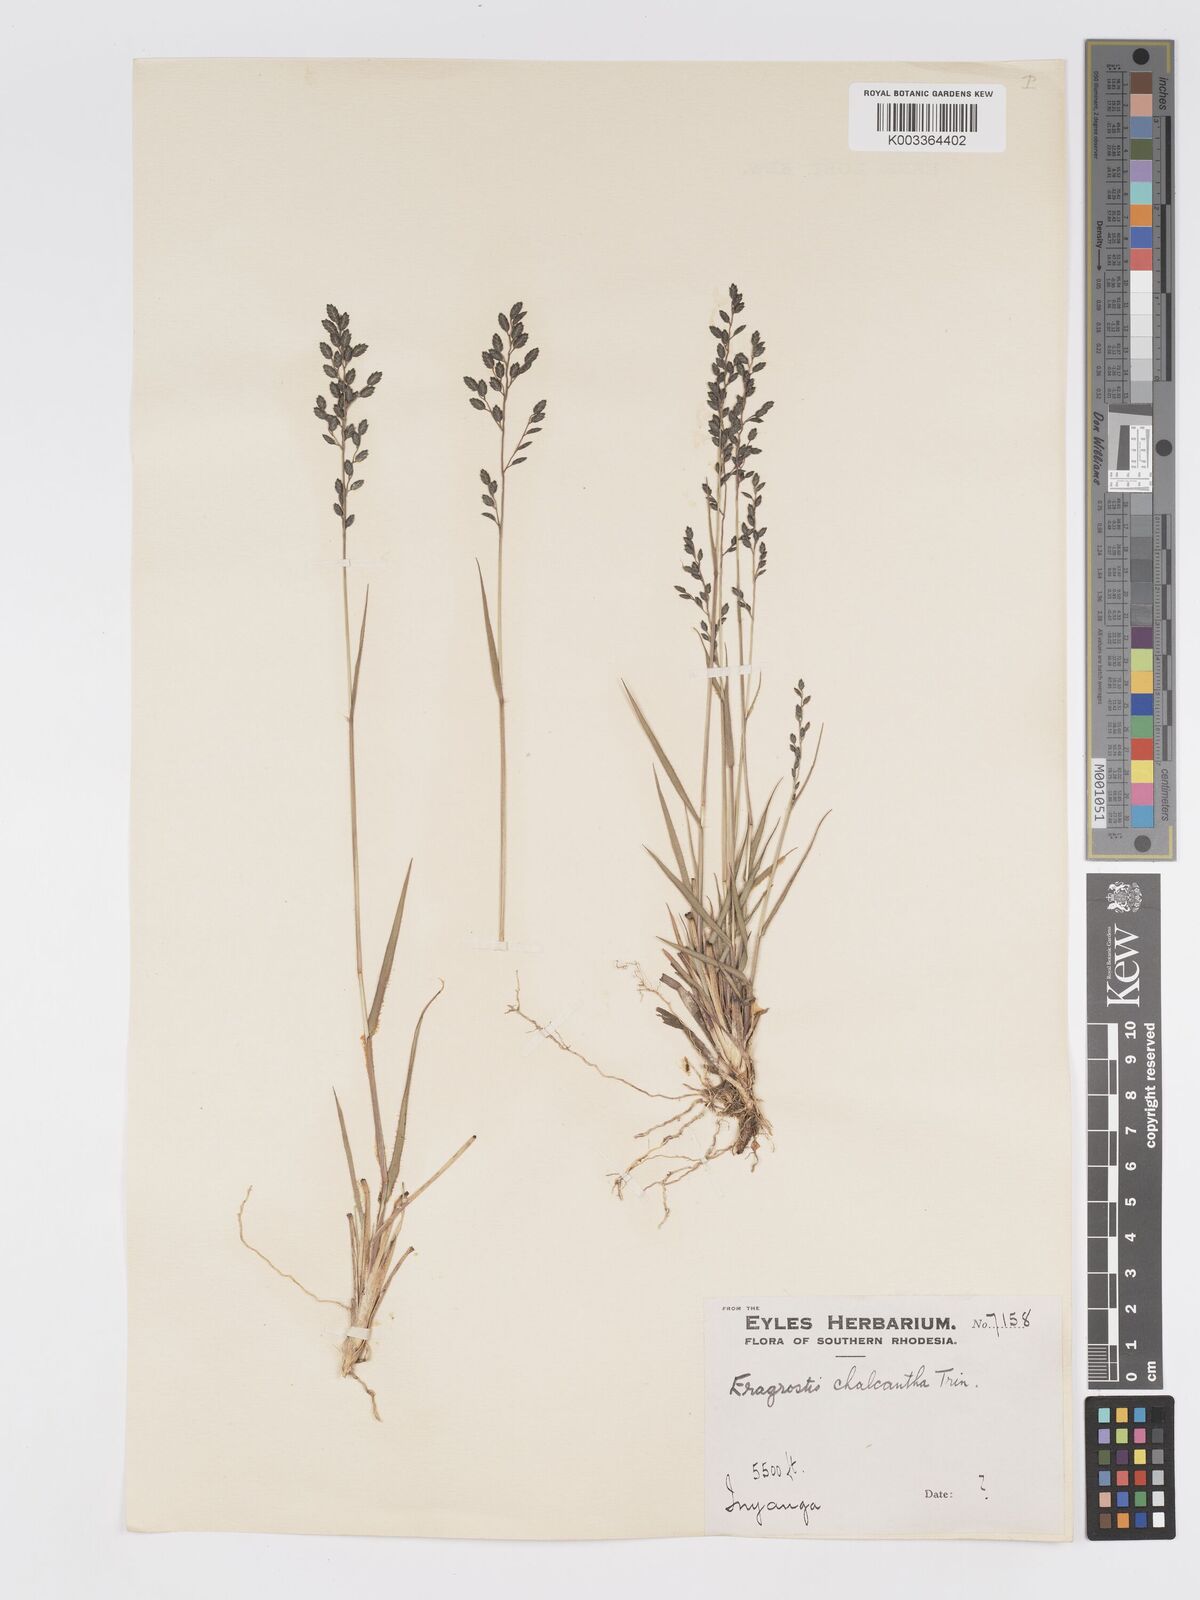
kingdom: Plantae
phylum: Tracheophyta
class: Liliopsida
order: Poales
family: Poaceae
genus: Eragrostis
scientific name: Eragrostis racemosa
